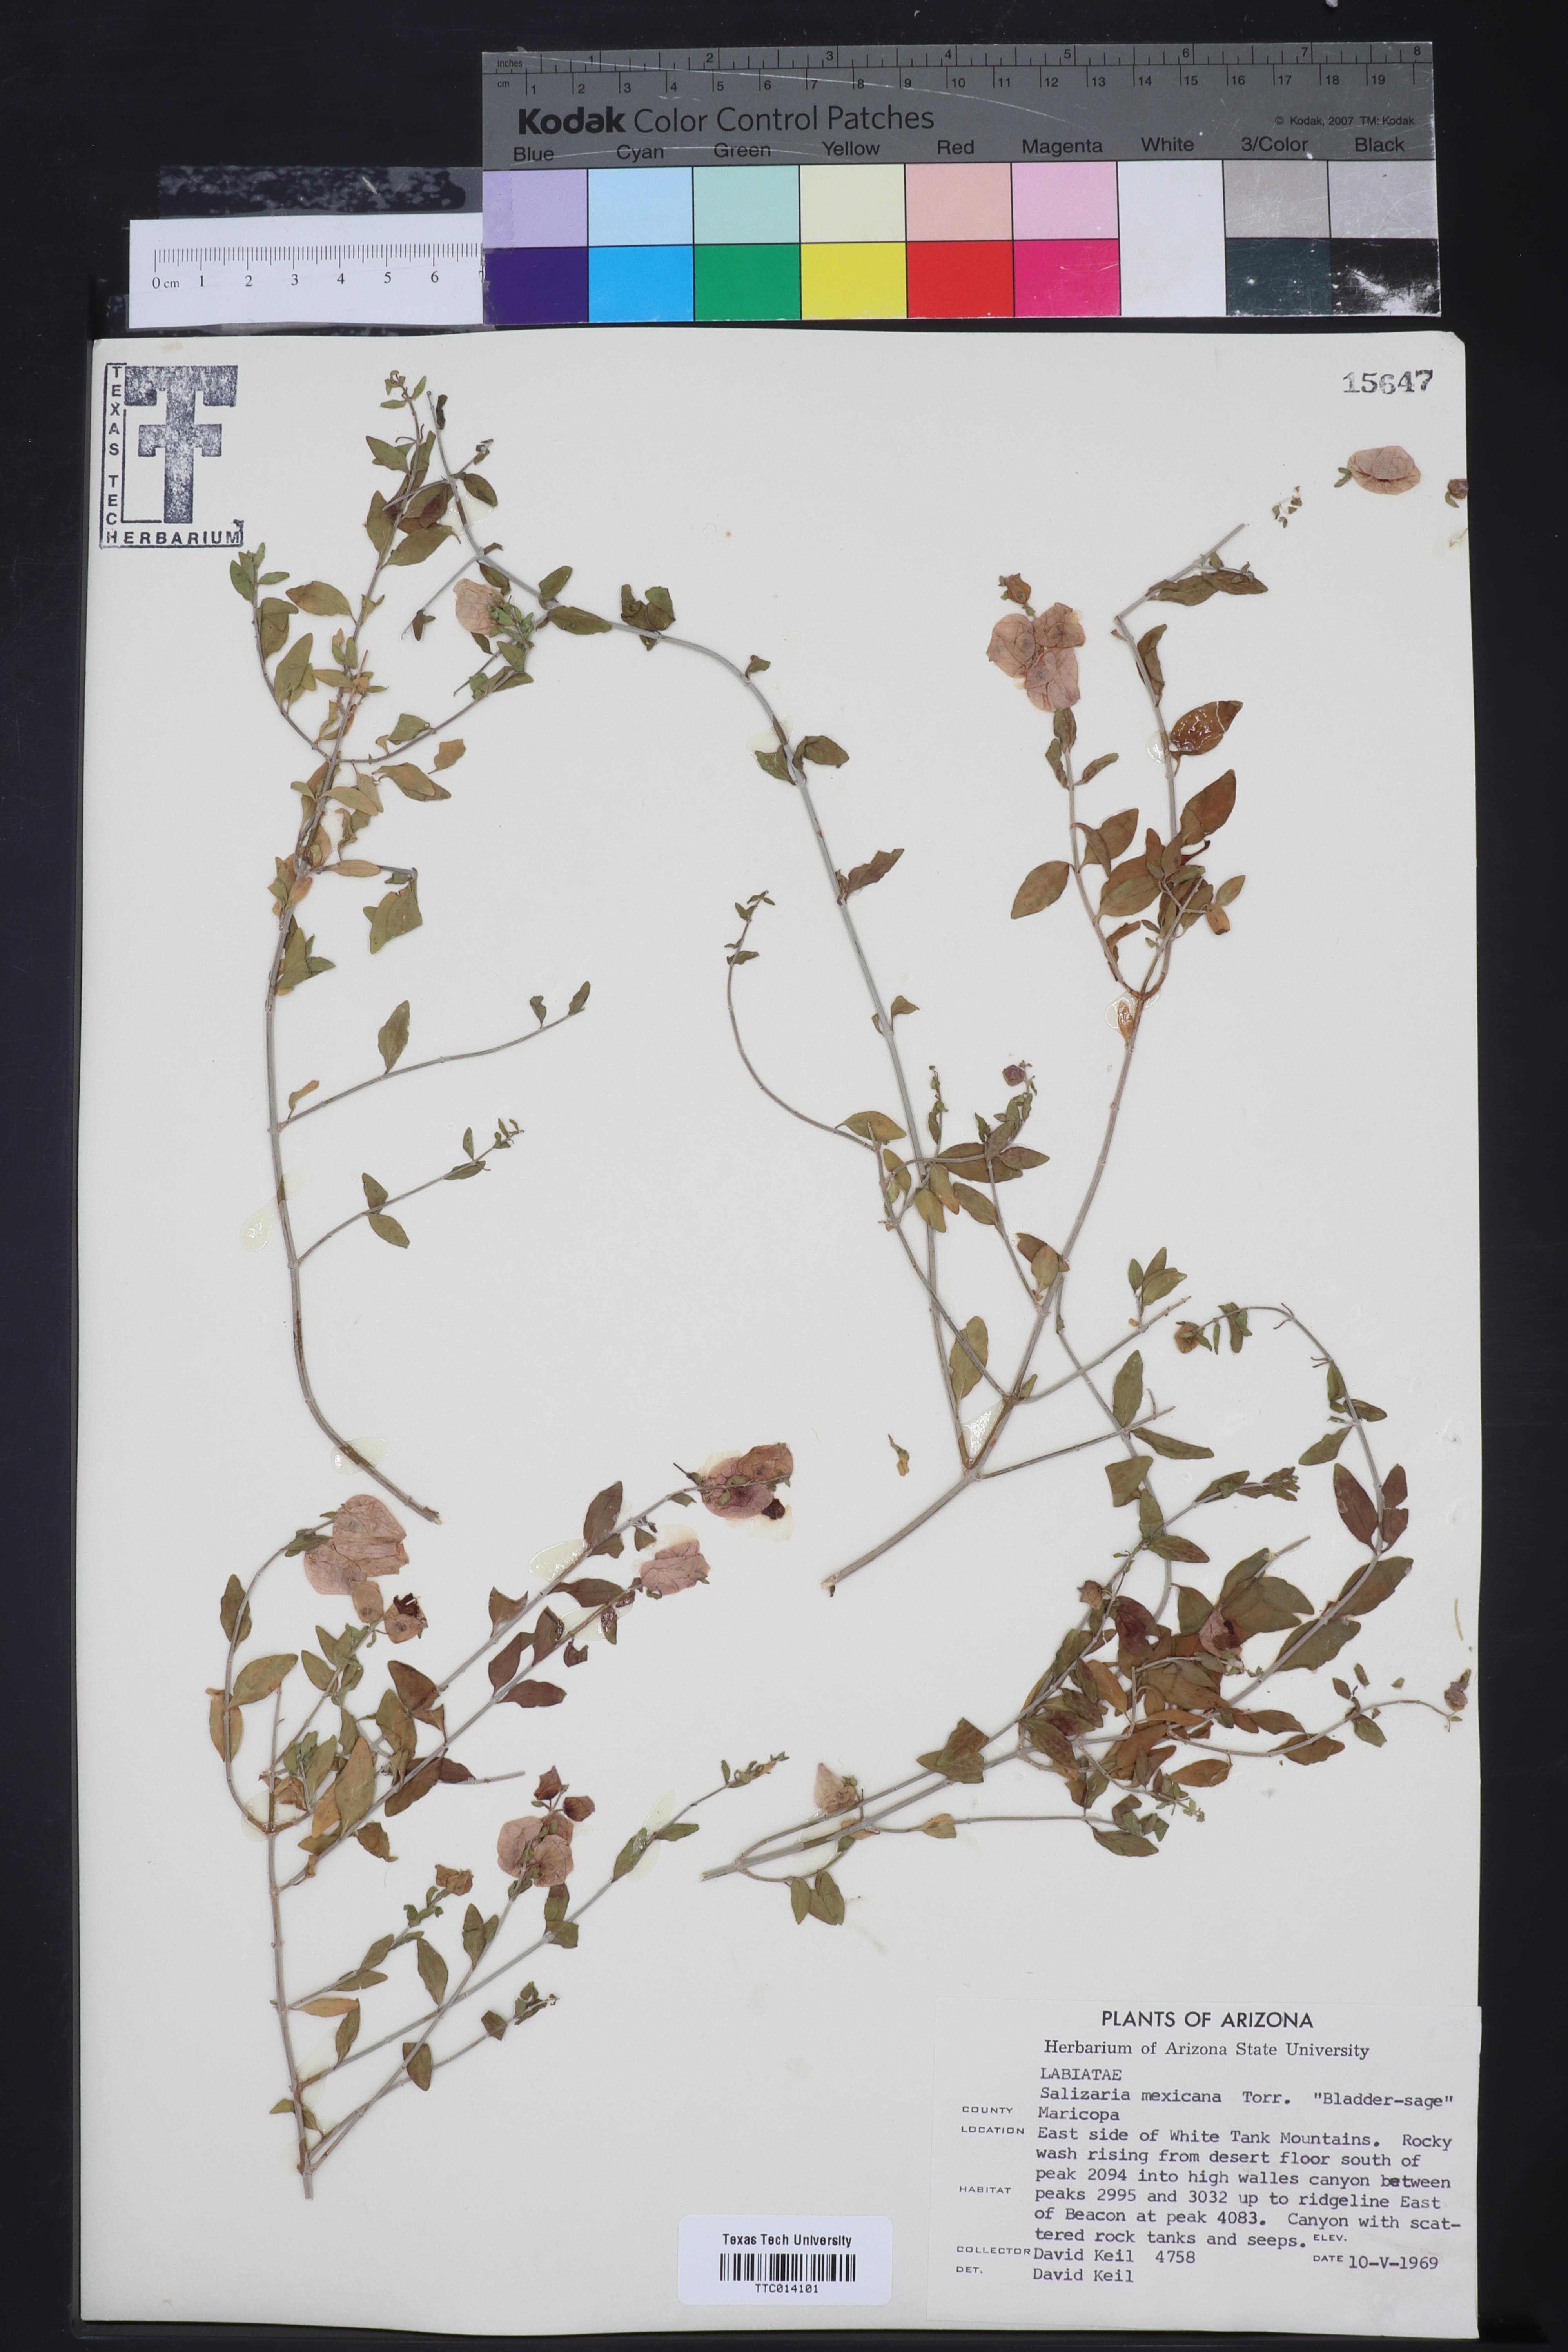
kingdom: Plantae
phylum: Tracheophyta
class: Magnoliopsida
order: Lamiales
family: Lamiaceae
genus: Scutellaria
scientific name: Scutellaria mexicana
